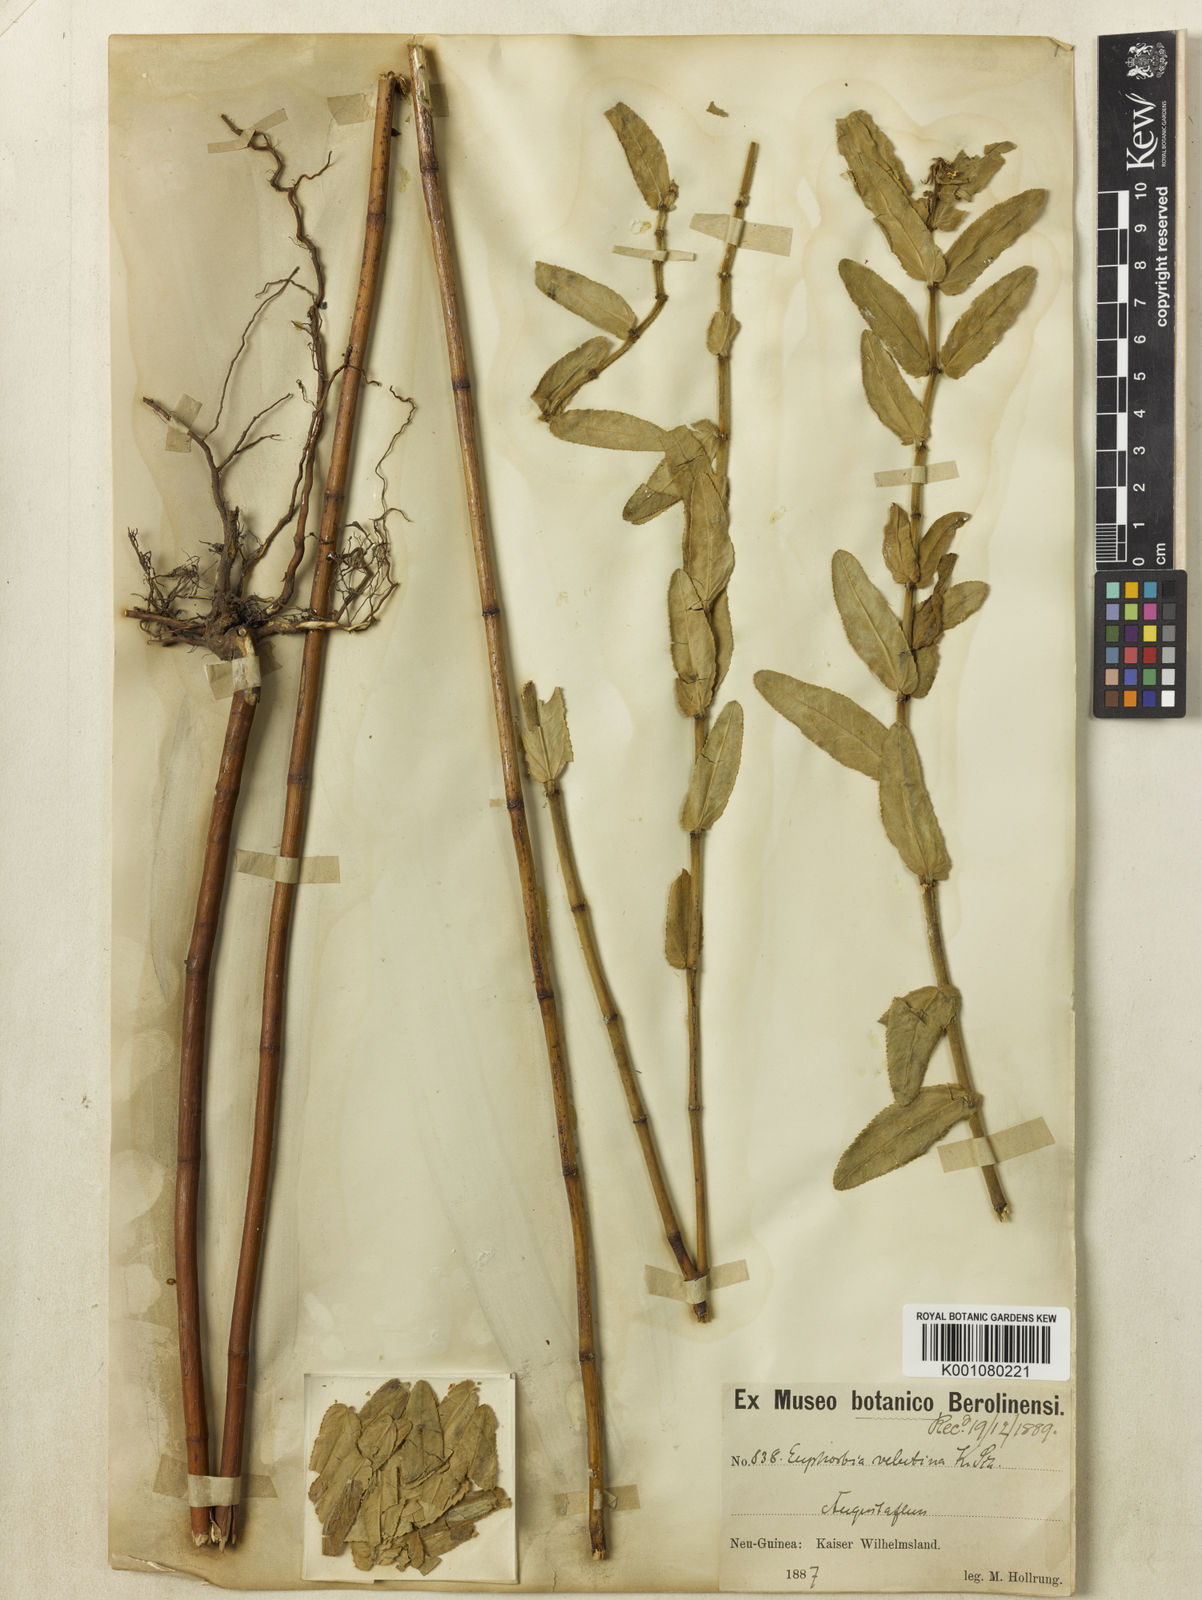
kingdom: Plantae
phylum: Tracheophyta
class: Magnoliopsida
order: Malpighiales
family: Euphorbiaceae
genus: Euphorbia
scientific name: Euphorbia schumannii
